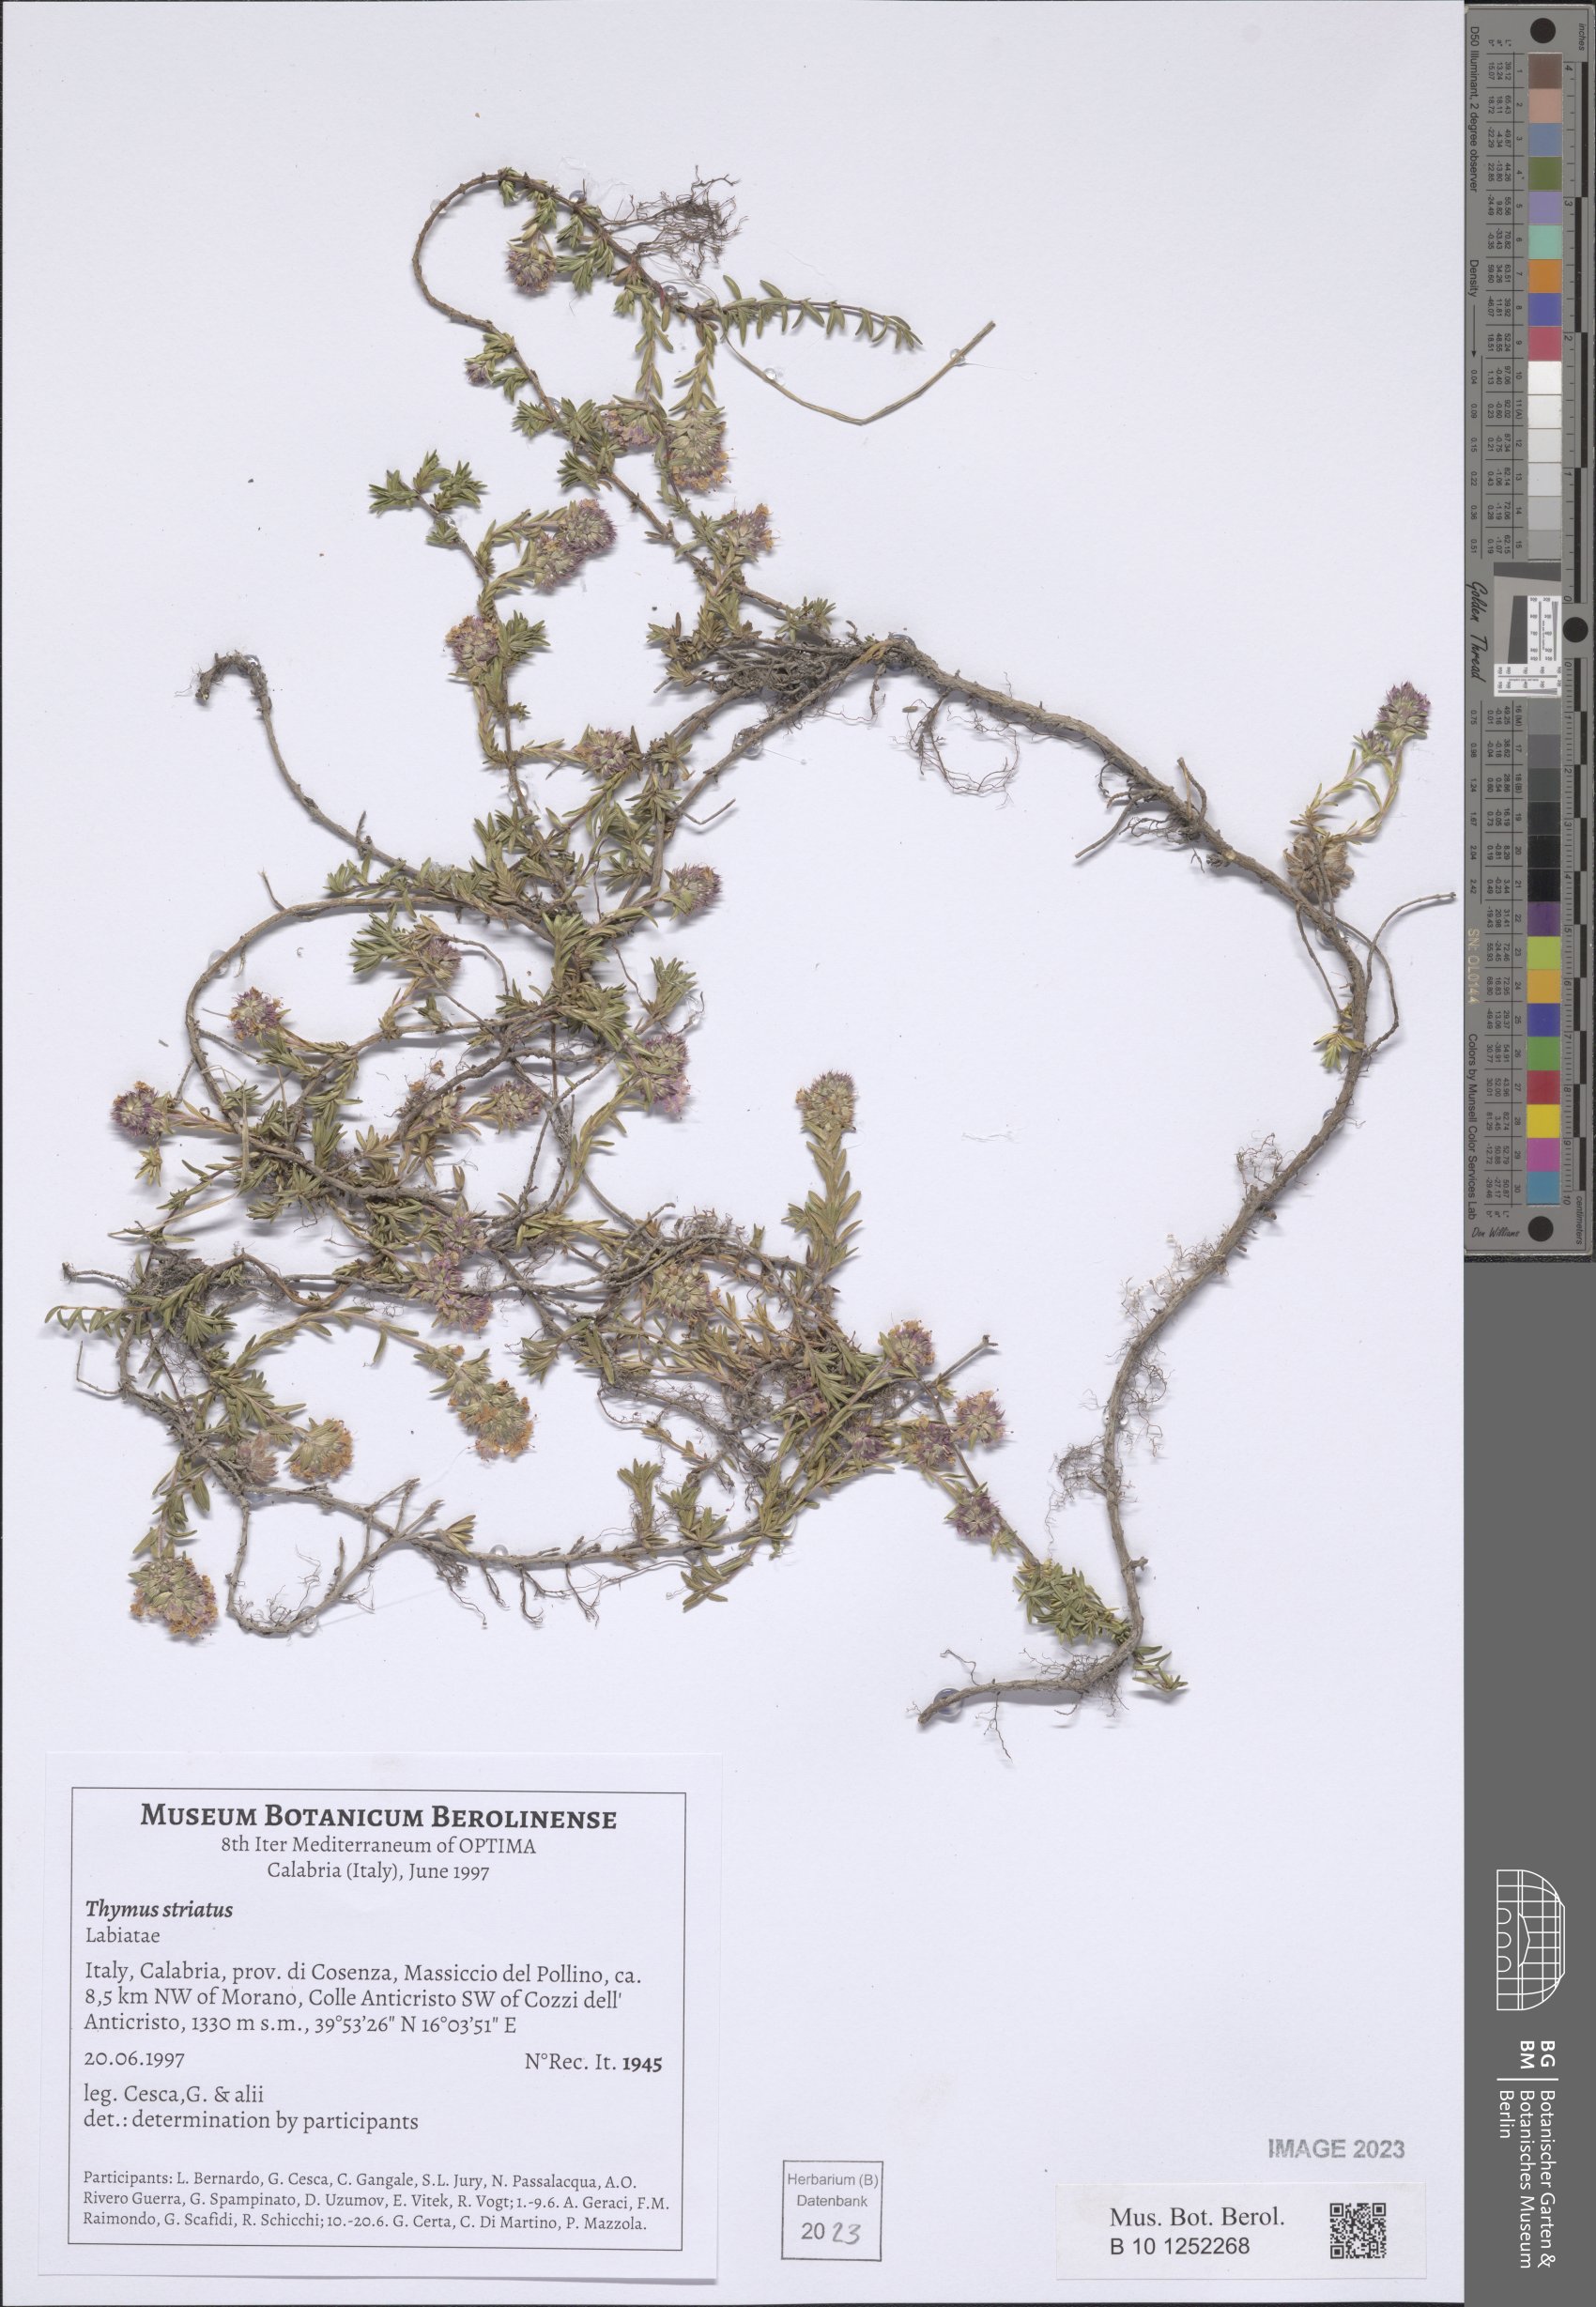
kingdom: Plantae
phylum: Tracheophyta
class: Magnoliopsida
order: Lamiales
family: Lamiaceae
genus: Thymus
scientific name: Thymus striatus
